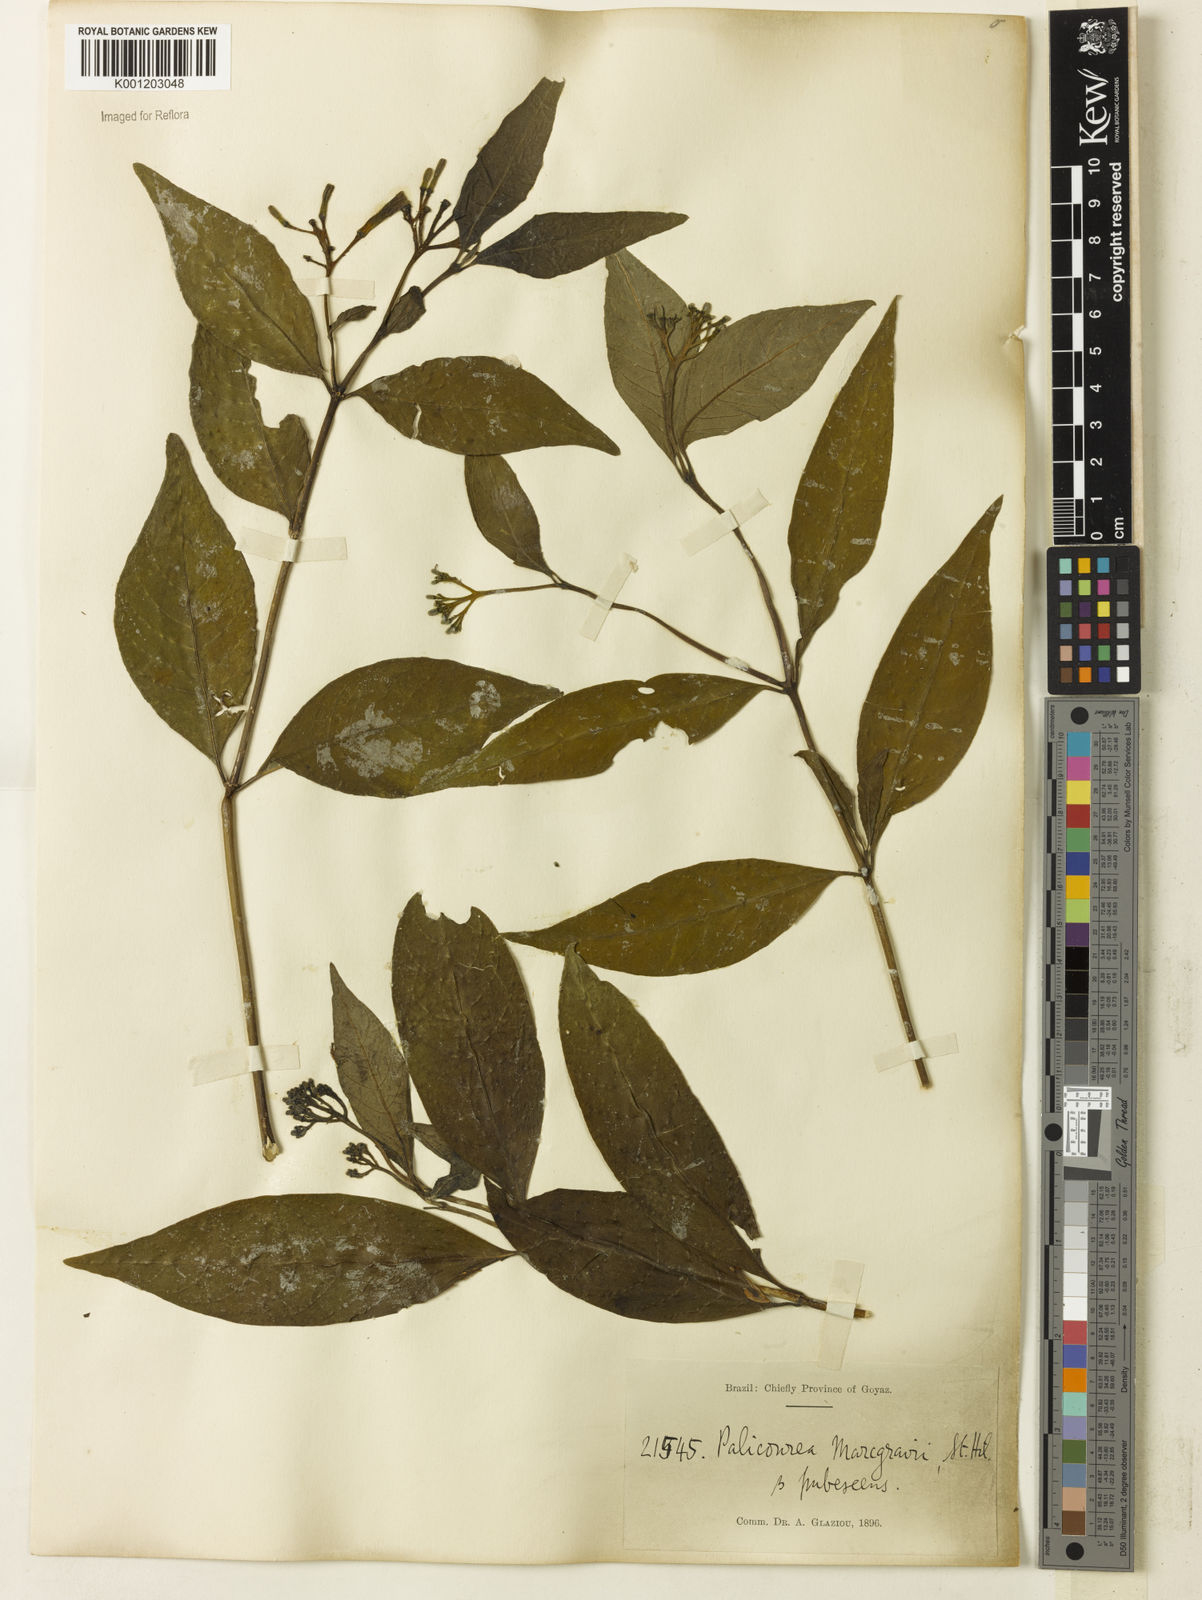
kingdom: Plantae
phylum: Tracheophyta
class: Magnoliopsida
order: Gentianales
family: Rubiaceae
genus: Palicourea
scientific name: Palicourea marcgravii
